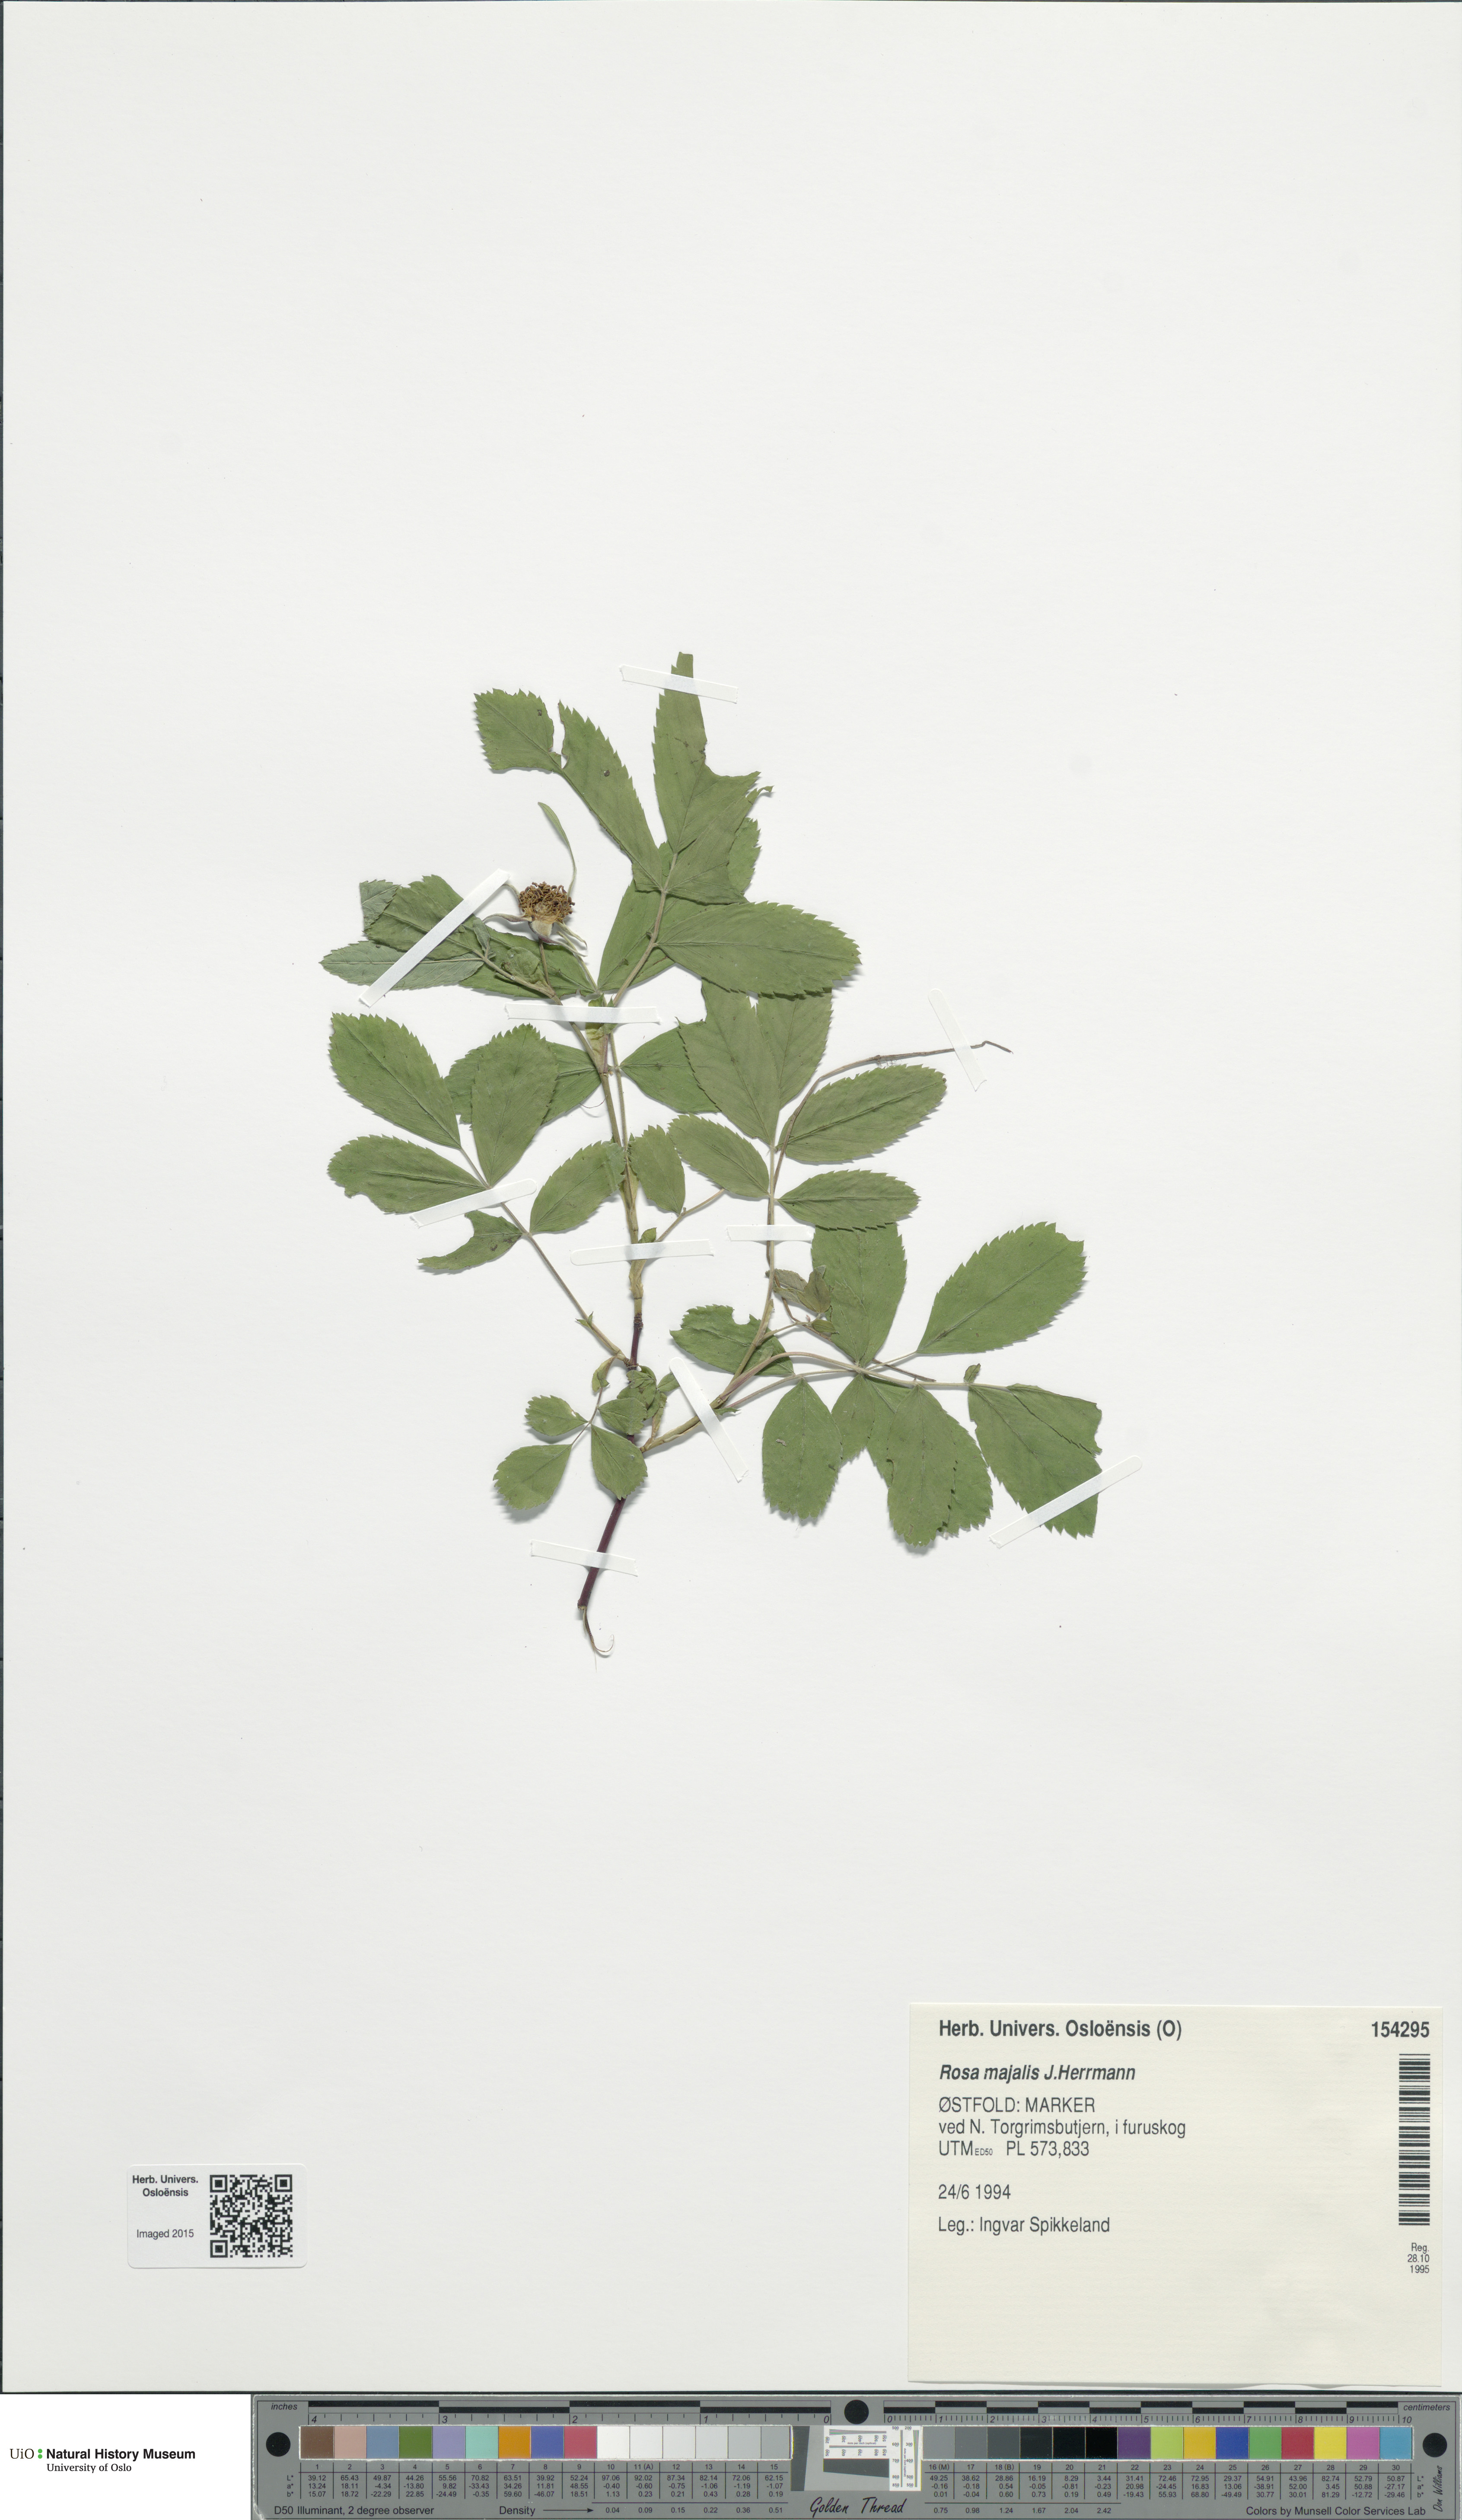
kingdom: Plantae
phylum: Tracheophyta
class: Magnoliopsida
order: Rosales
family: Rosaceae
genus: Rosa
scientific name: Rosa majalis
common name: Cinnamon rose
